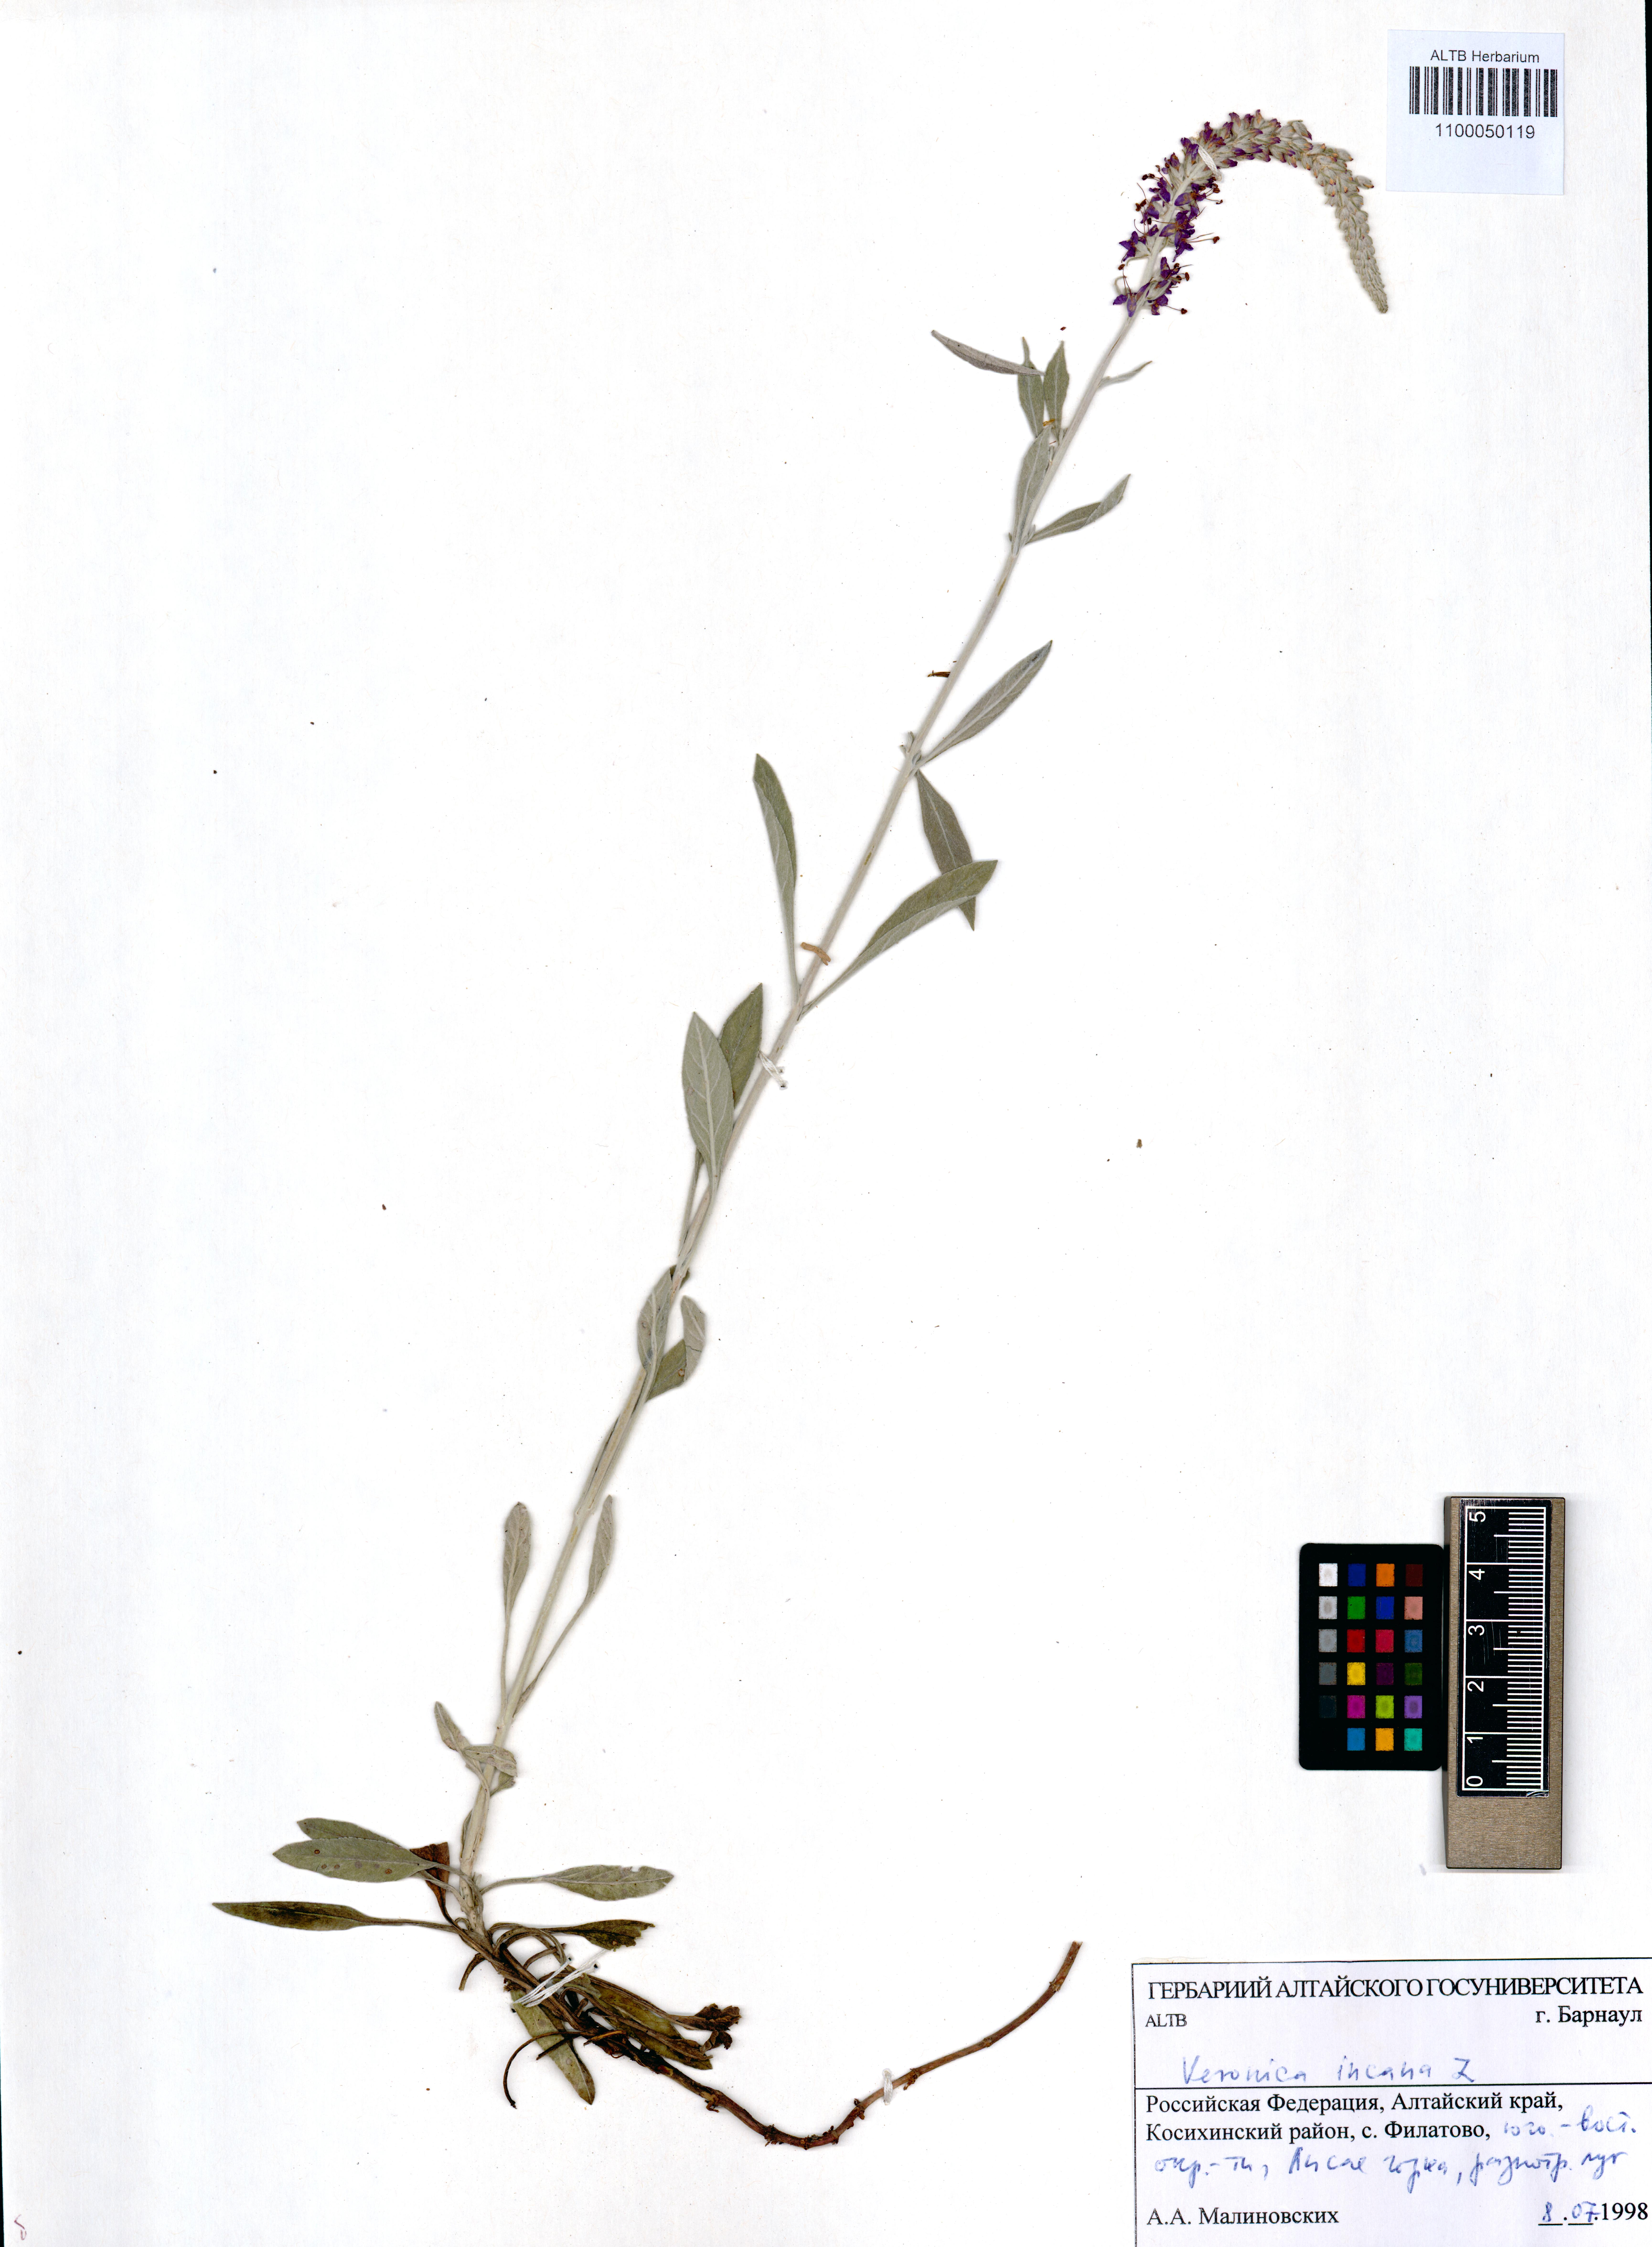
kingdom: Plantae
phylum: Tracheophyta
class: Magnoliopsida
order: Lamiales
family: Plantaginaceae
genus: Veronica
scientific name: Veronica incana
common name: Silver speedwell
